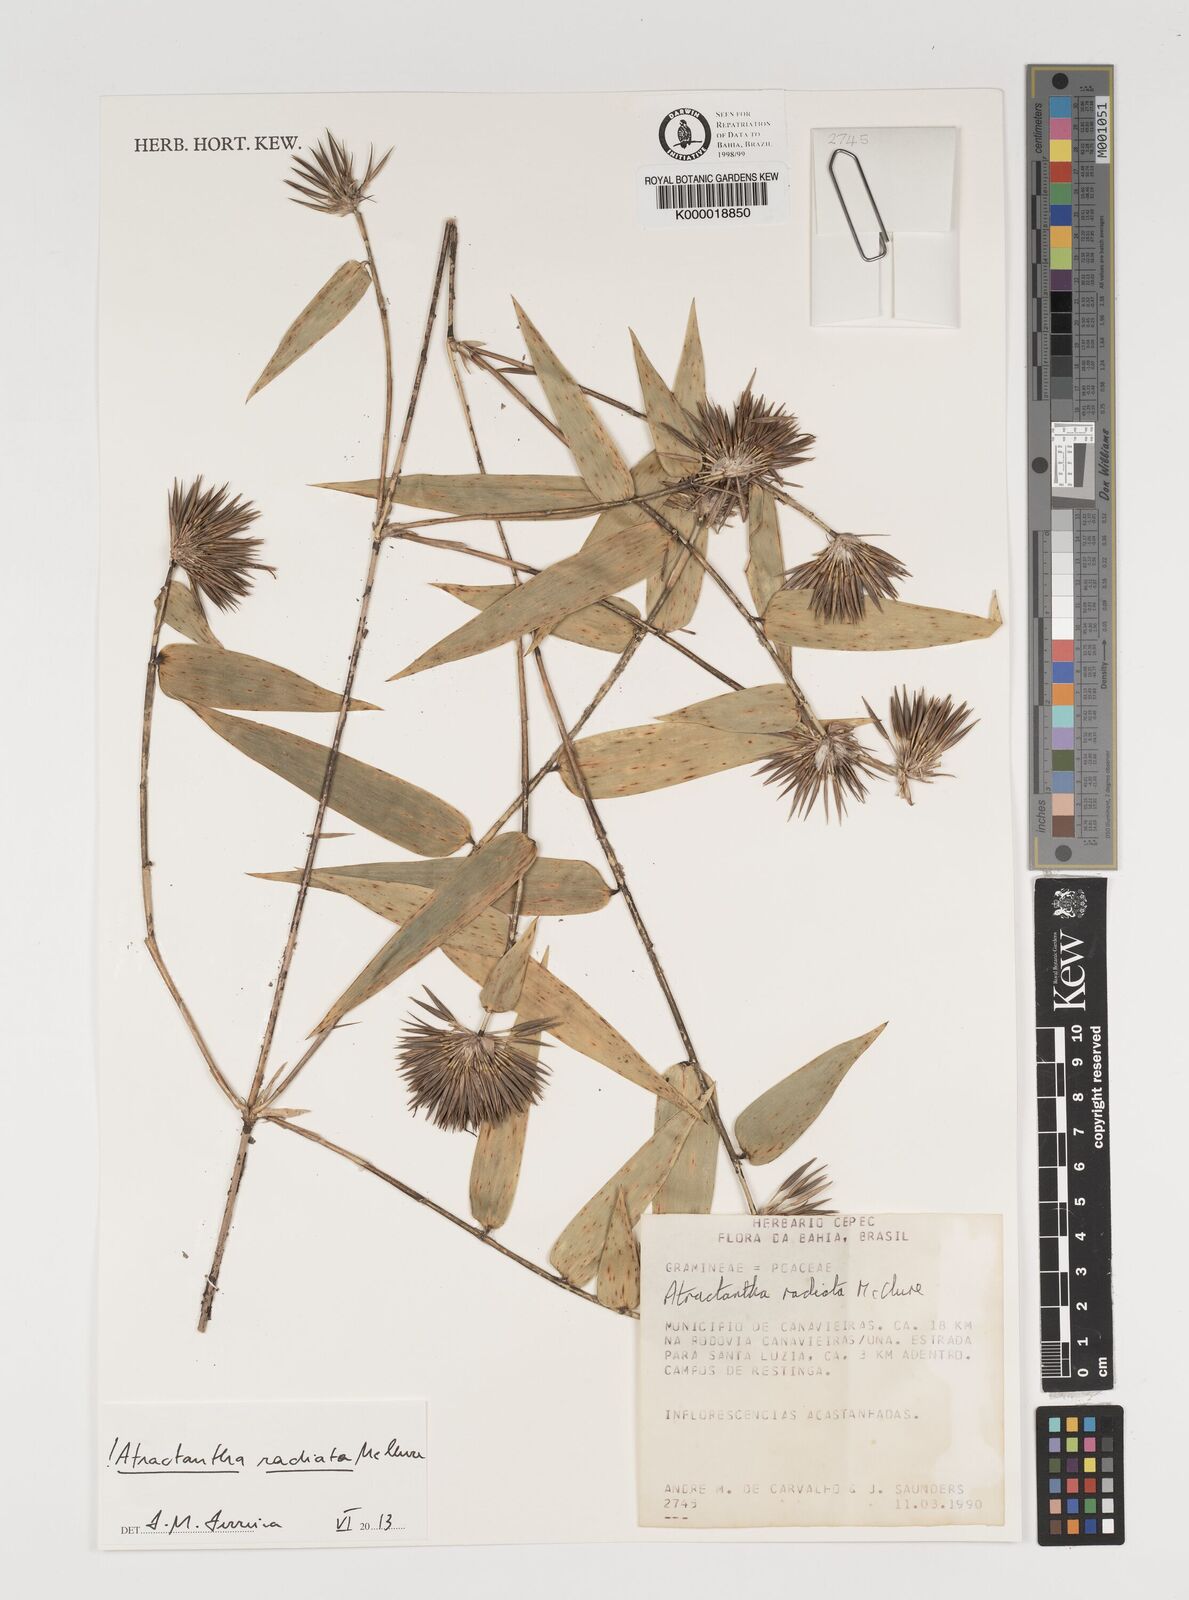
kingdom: Plantae
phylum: Tracheophyta
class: Liliopsida
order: Poales
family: Poaceae
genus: Atractantha
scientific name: Atractantha radiata
